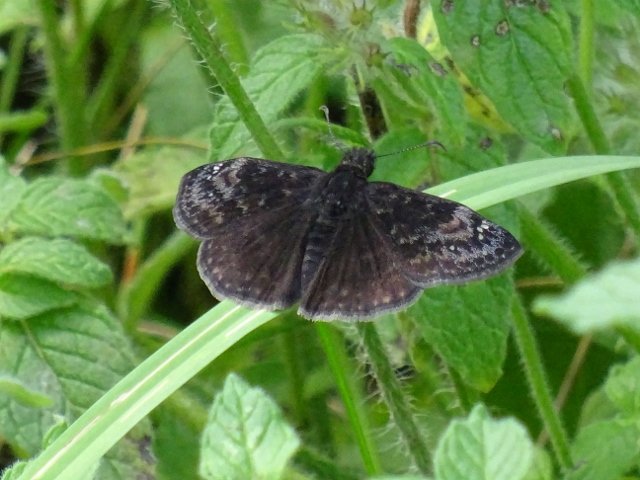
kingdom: Animalia
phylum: Arthropoda
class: Insecta
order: Lepidoptera
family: Hesperiidae
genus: Gesta
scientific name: Gesta
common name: Wild Indigo Duskywing
